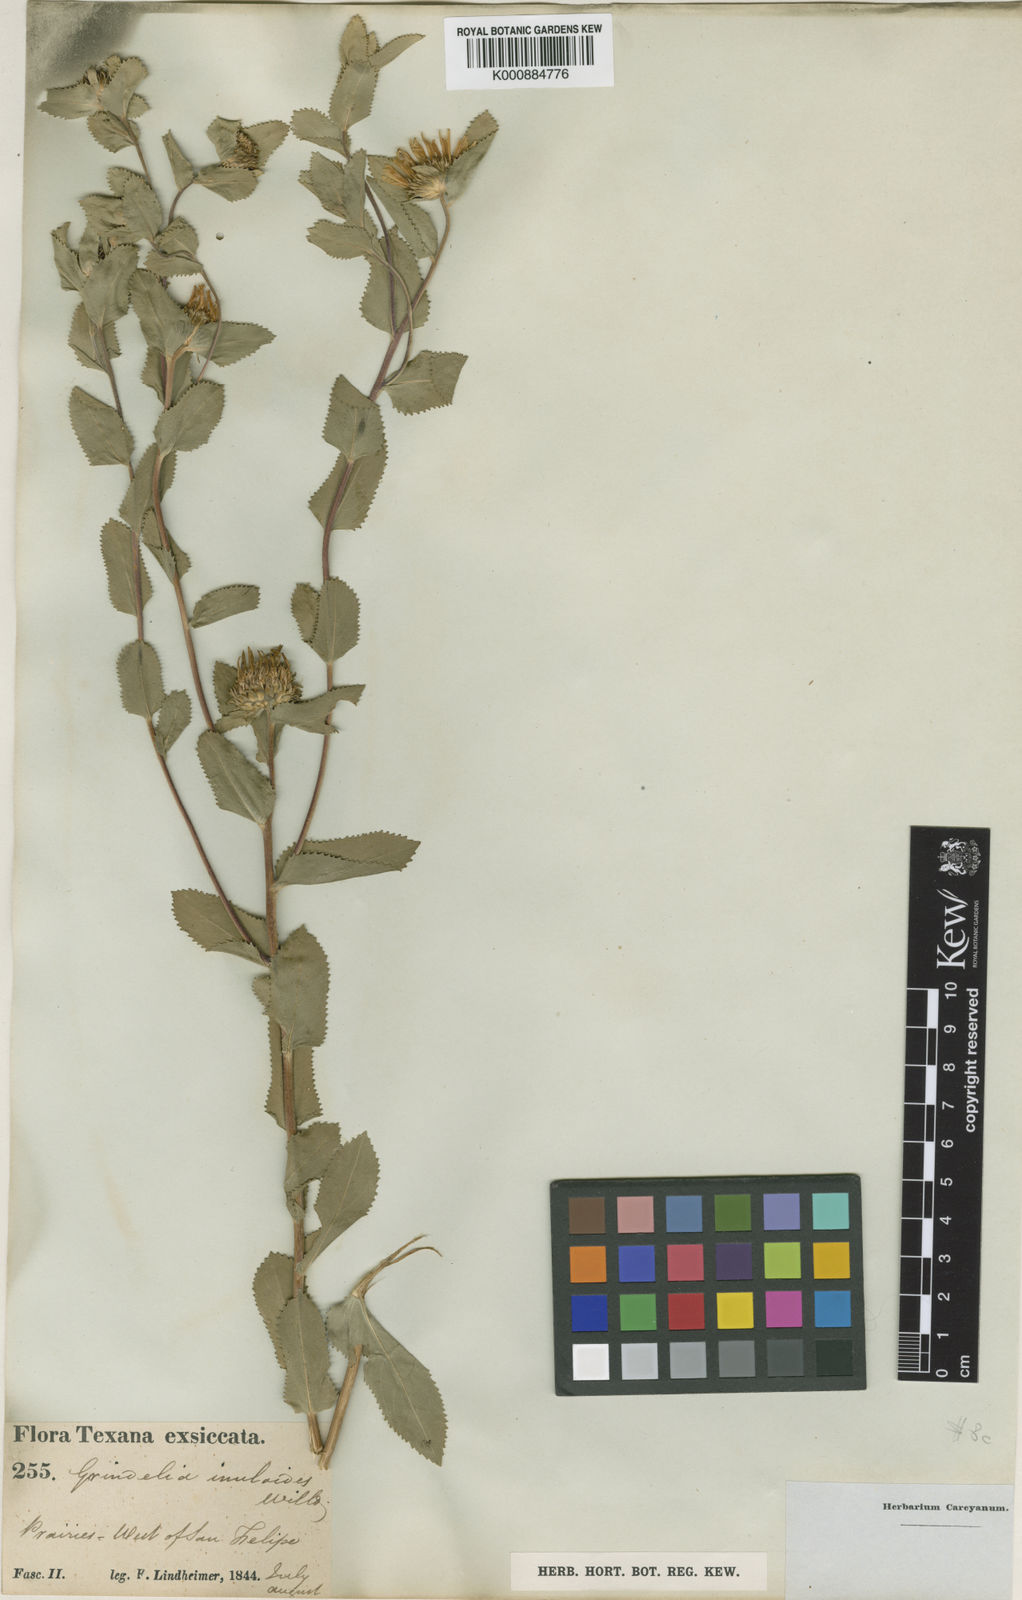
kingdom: Plantae
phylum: Tracheophyta
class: Magnoliopsida
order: Asterales
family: Asteraceae
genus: Grindelia
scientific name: Grindelia adenodonta
